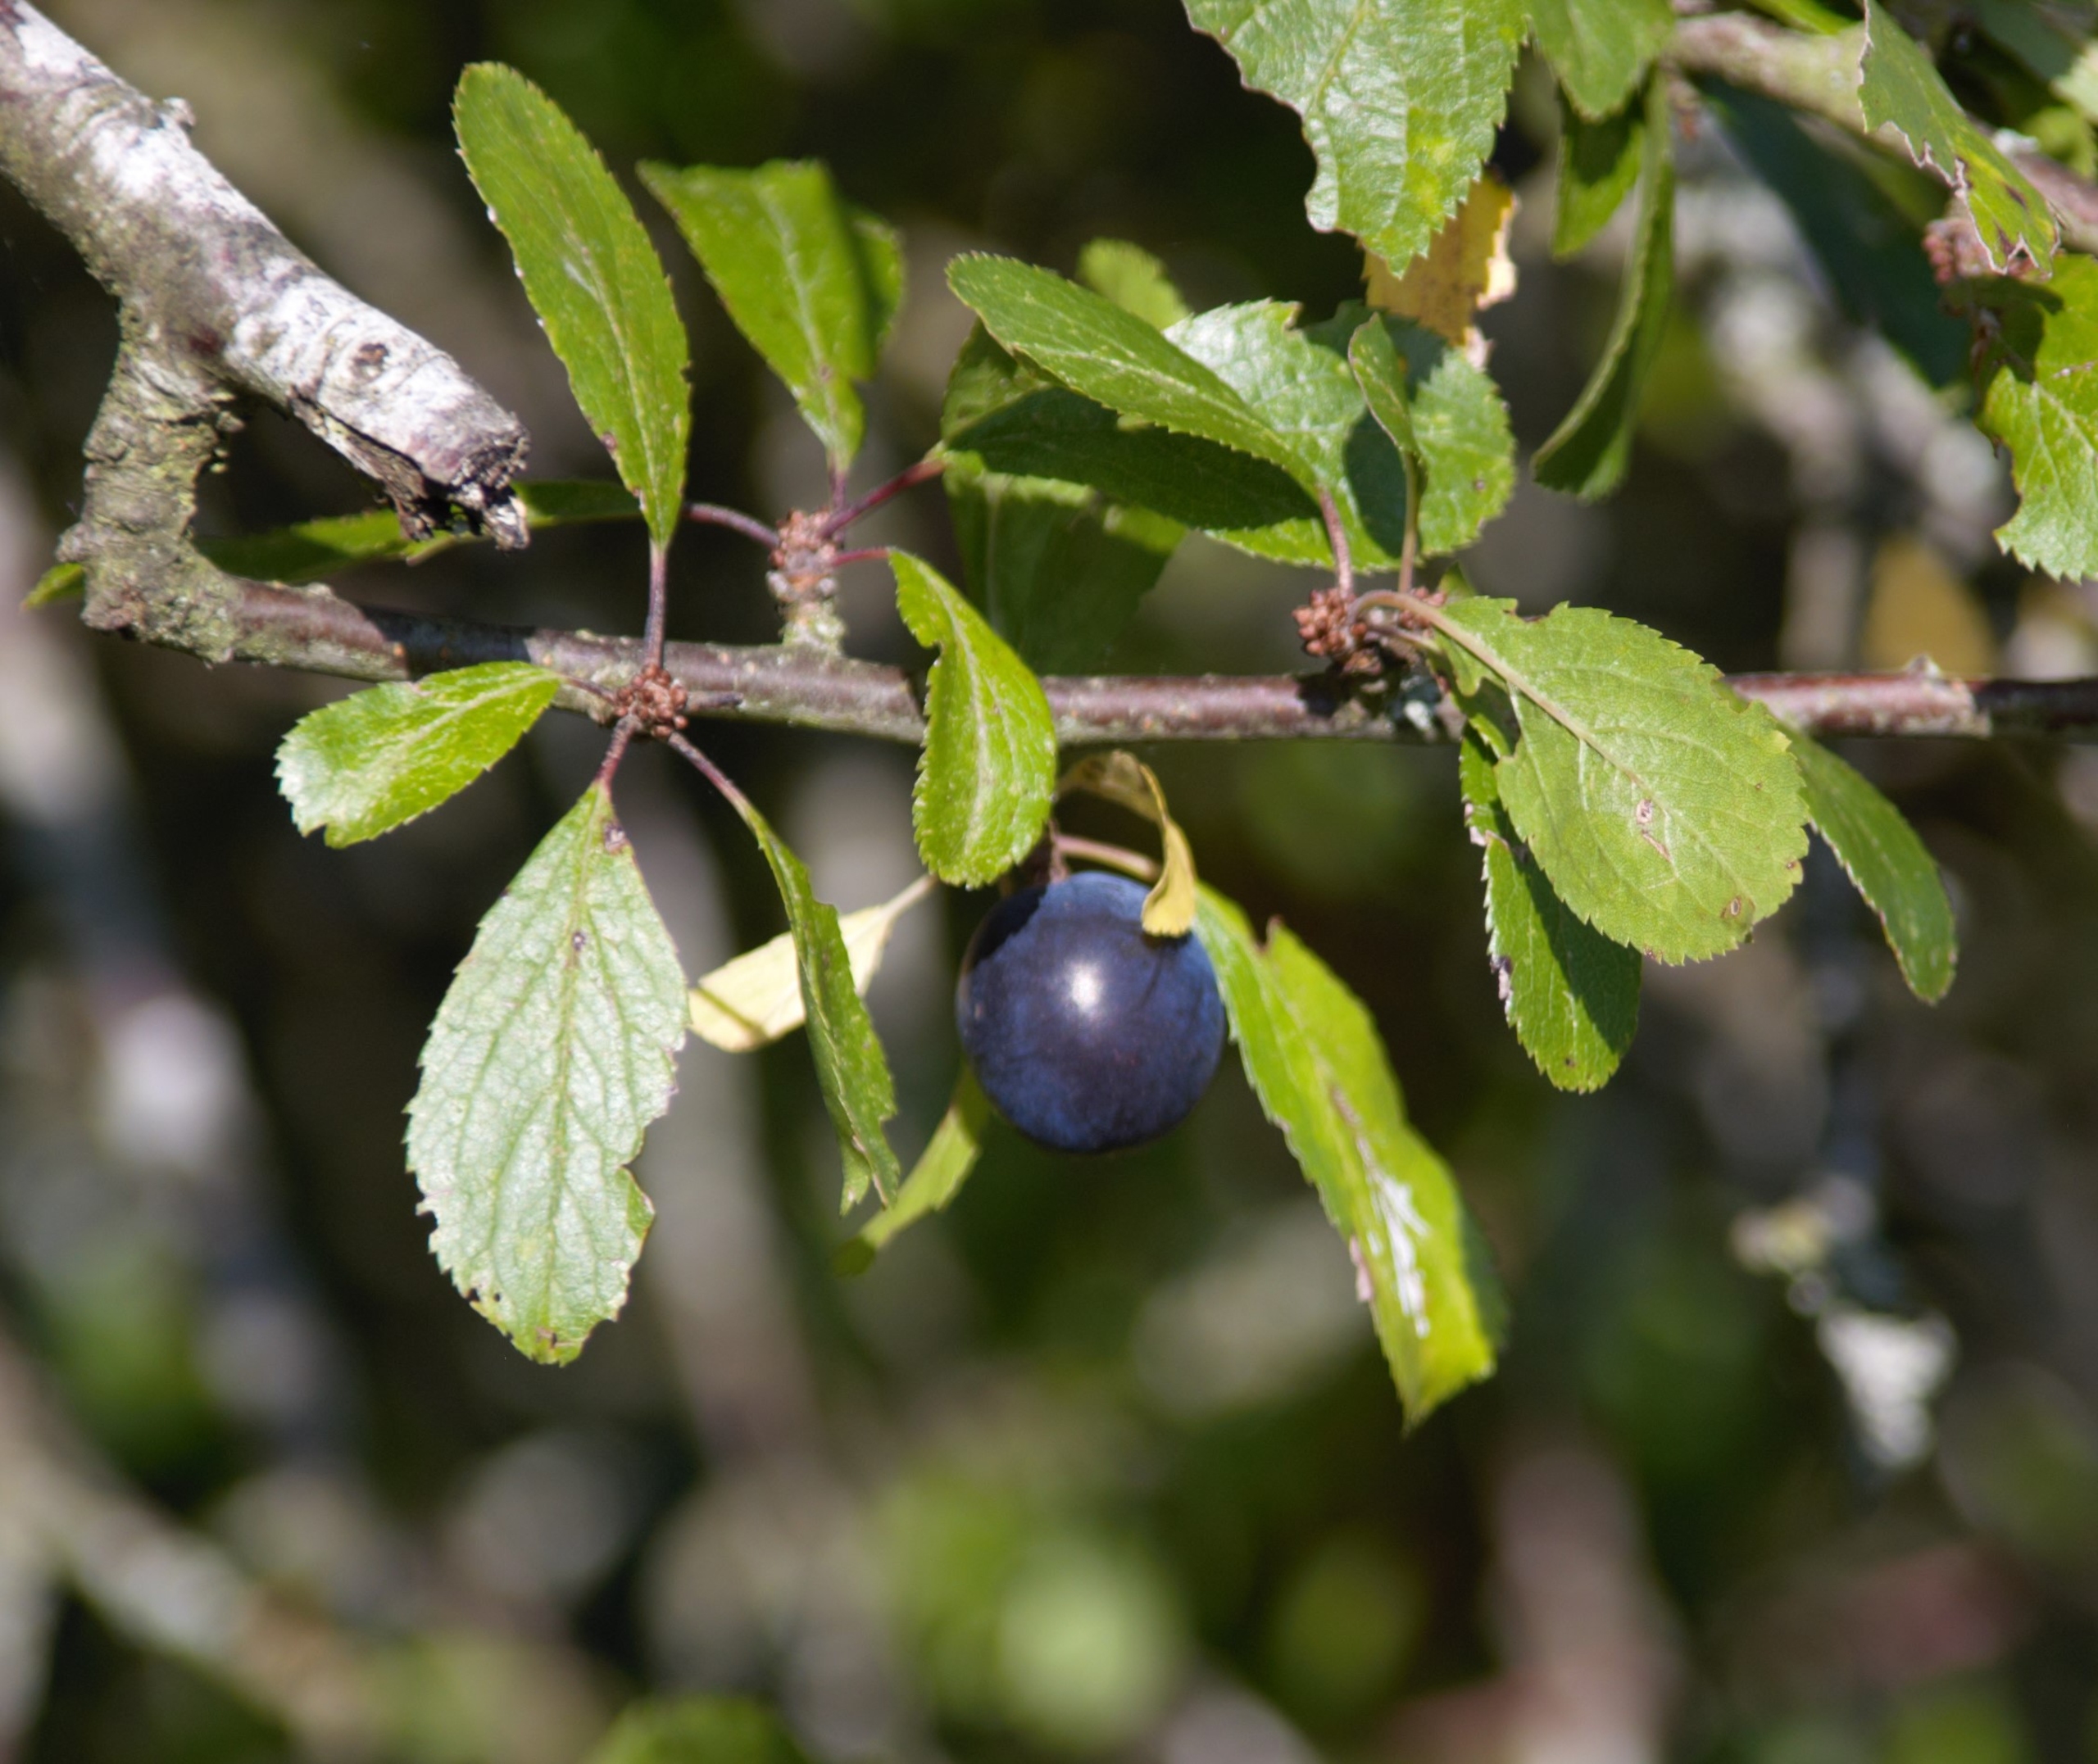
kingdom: Plantae
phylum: Tracheophyta
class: Magnoliopsida
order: Rosales
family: Rosaceae
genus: Prunus
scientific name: Prunus spinosa
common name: Slåen
